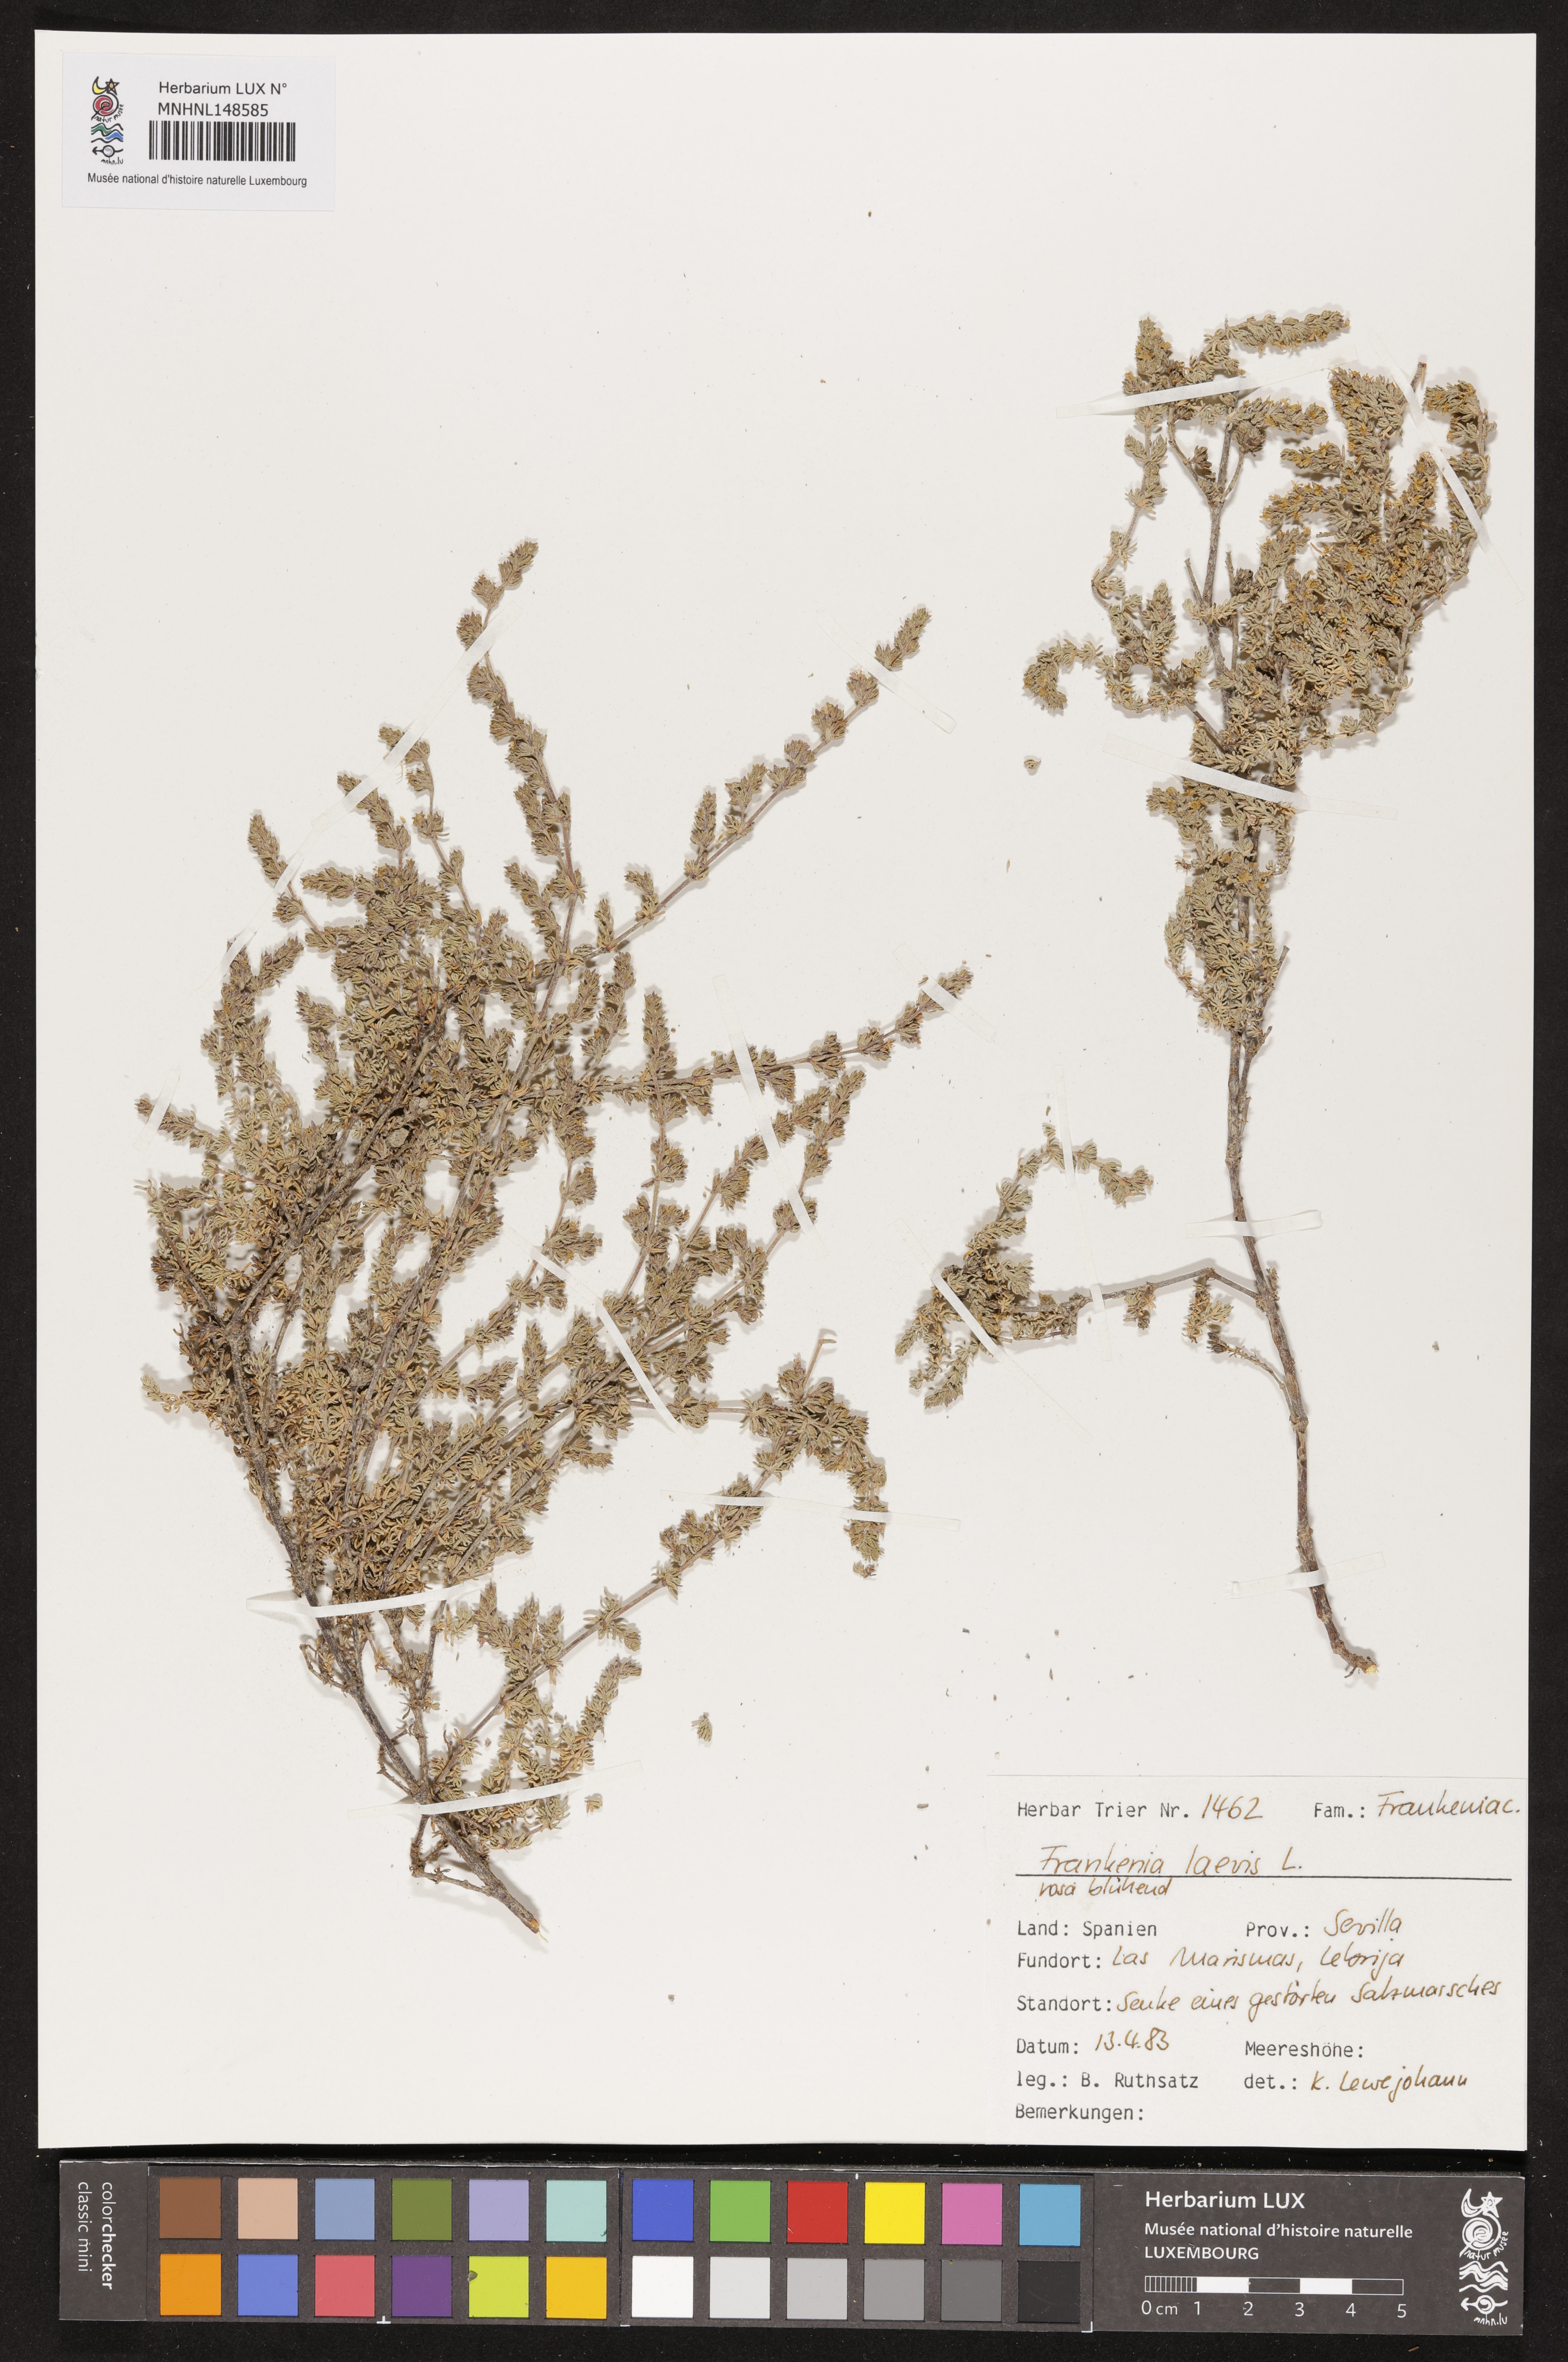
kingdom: Plantae
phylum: Tracheophyta
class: Magnoliopsida
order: Caryophyllales
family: Frankeniaceae
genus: Frankenia
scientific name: Frankenia laevis
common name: Sea-heath
